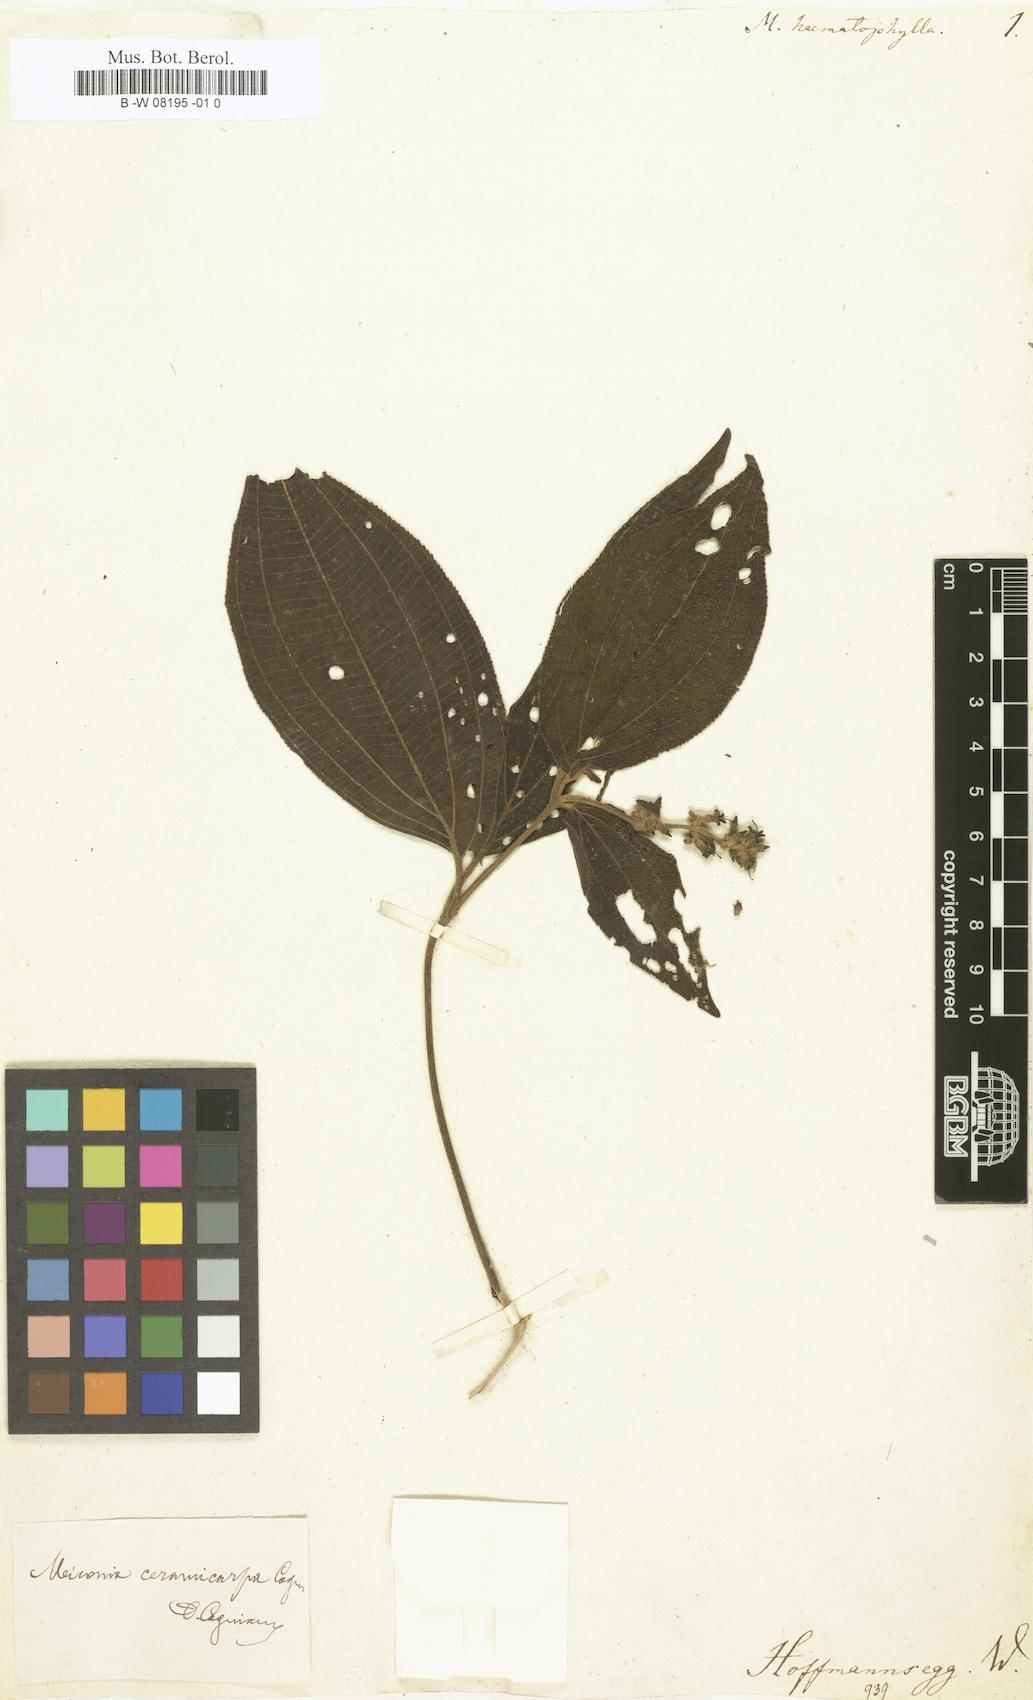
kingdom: Plantae
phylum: Tracheophyta
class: Magnoliopsida
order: Myrtales
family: Melastomataceae
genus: Melastoma
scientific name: Melastoma
